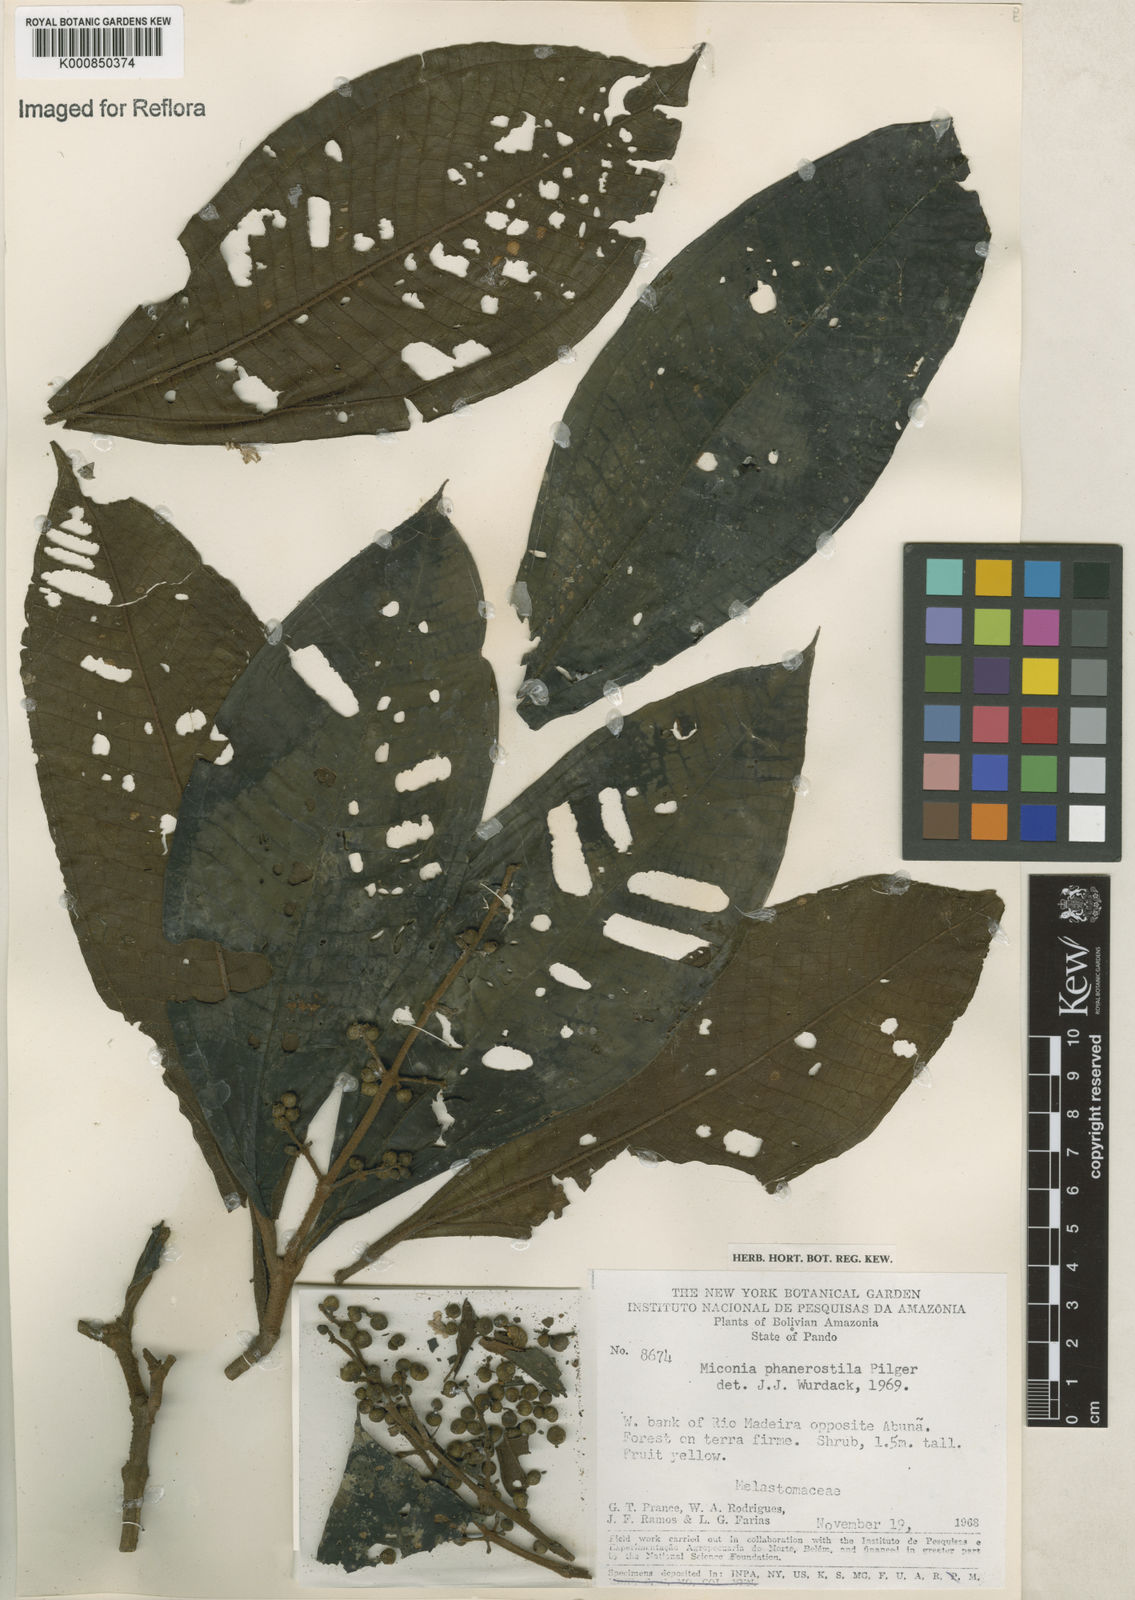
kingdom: Plantae
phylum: Tracheophyta
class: Magnoliopsida
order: Myrtales
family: Melastomataceae
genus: Miconia
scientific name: Miconia phanerostila
